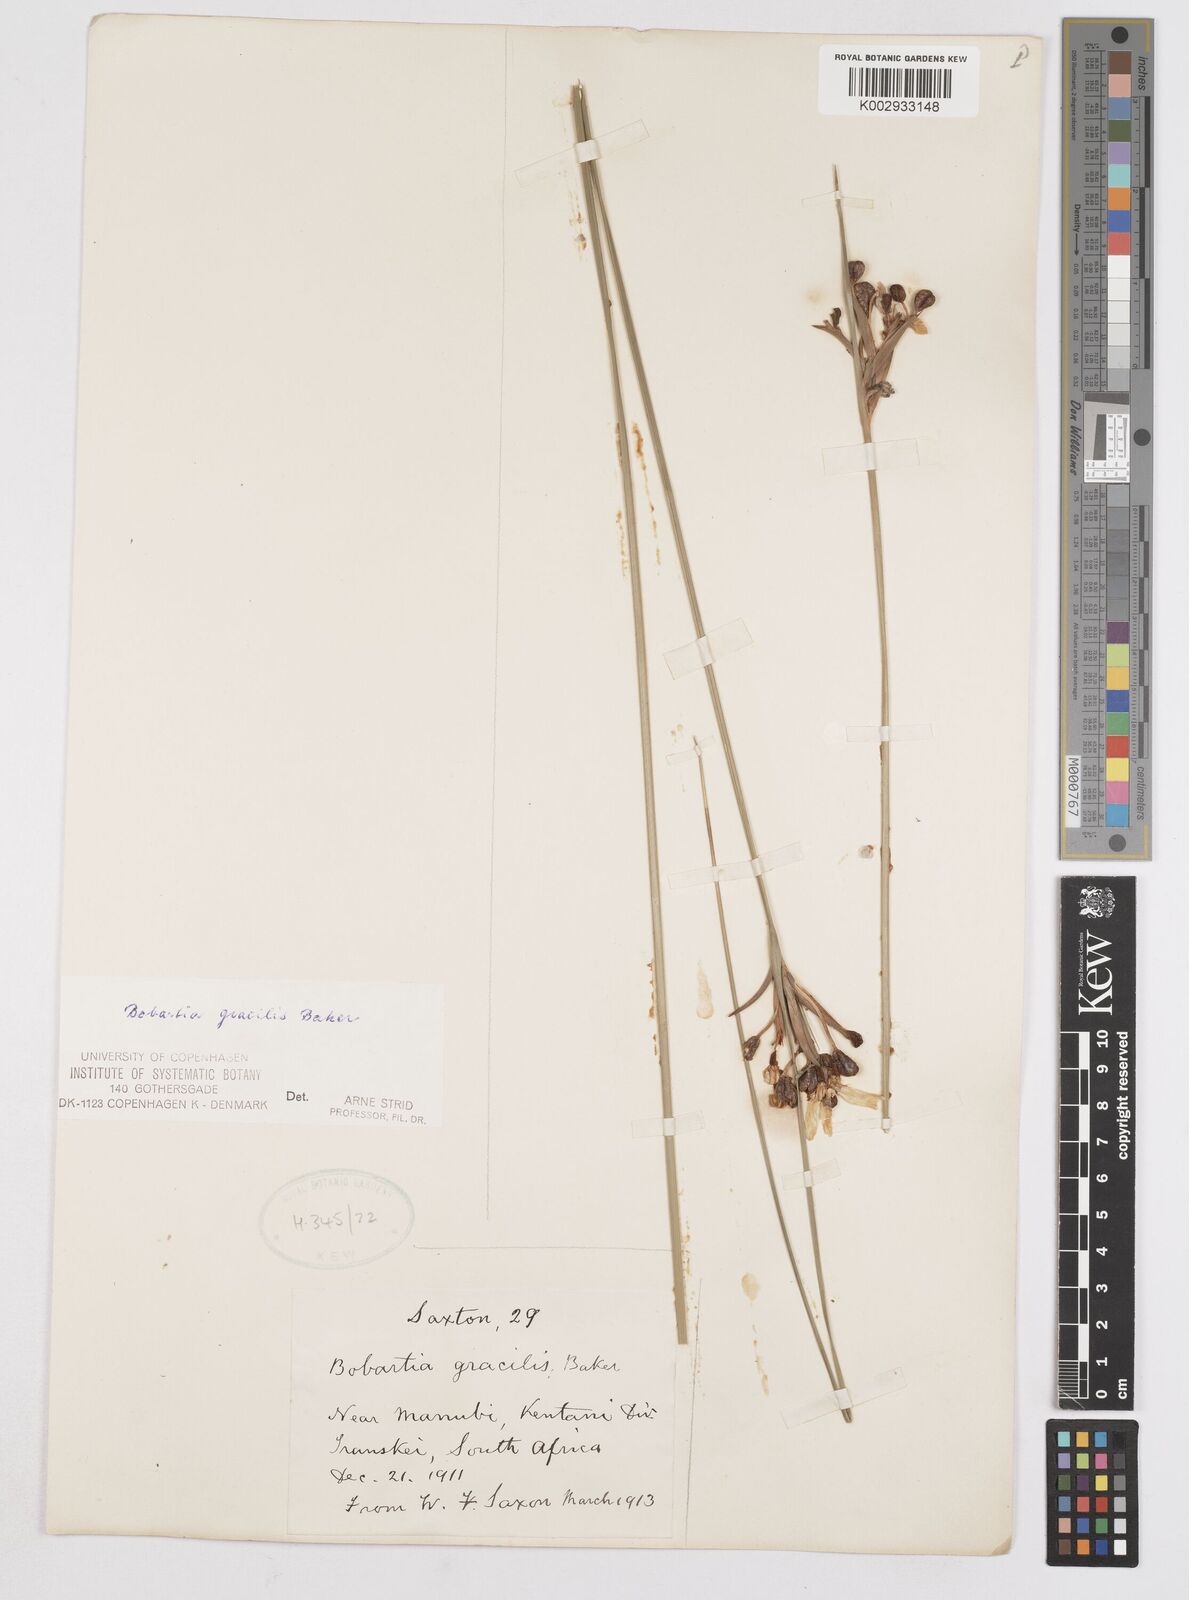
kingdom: Plantae
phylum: Tracheophyta
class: Liliopsida
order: Asparagales
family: Iridaceae
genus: Bobartia
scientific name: Bobartia gracilis
